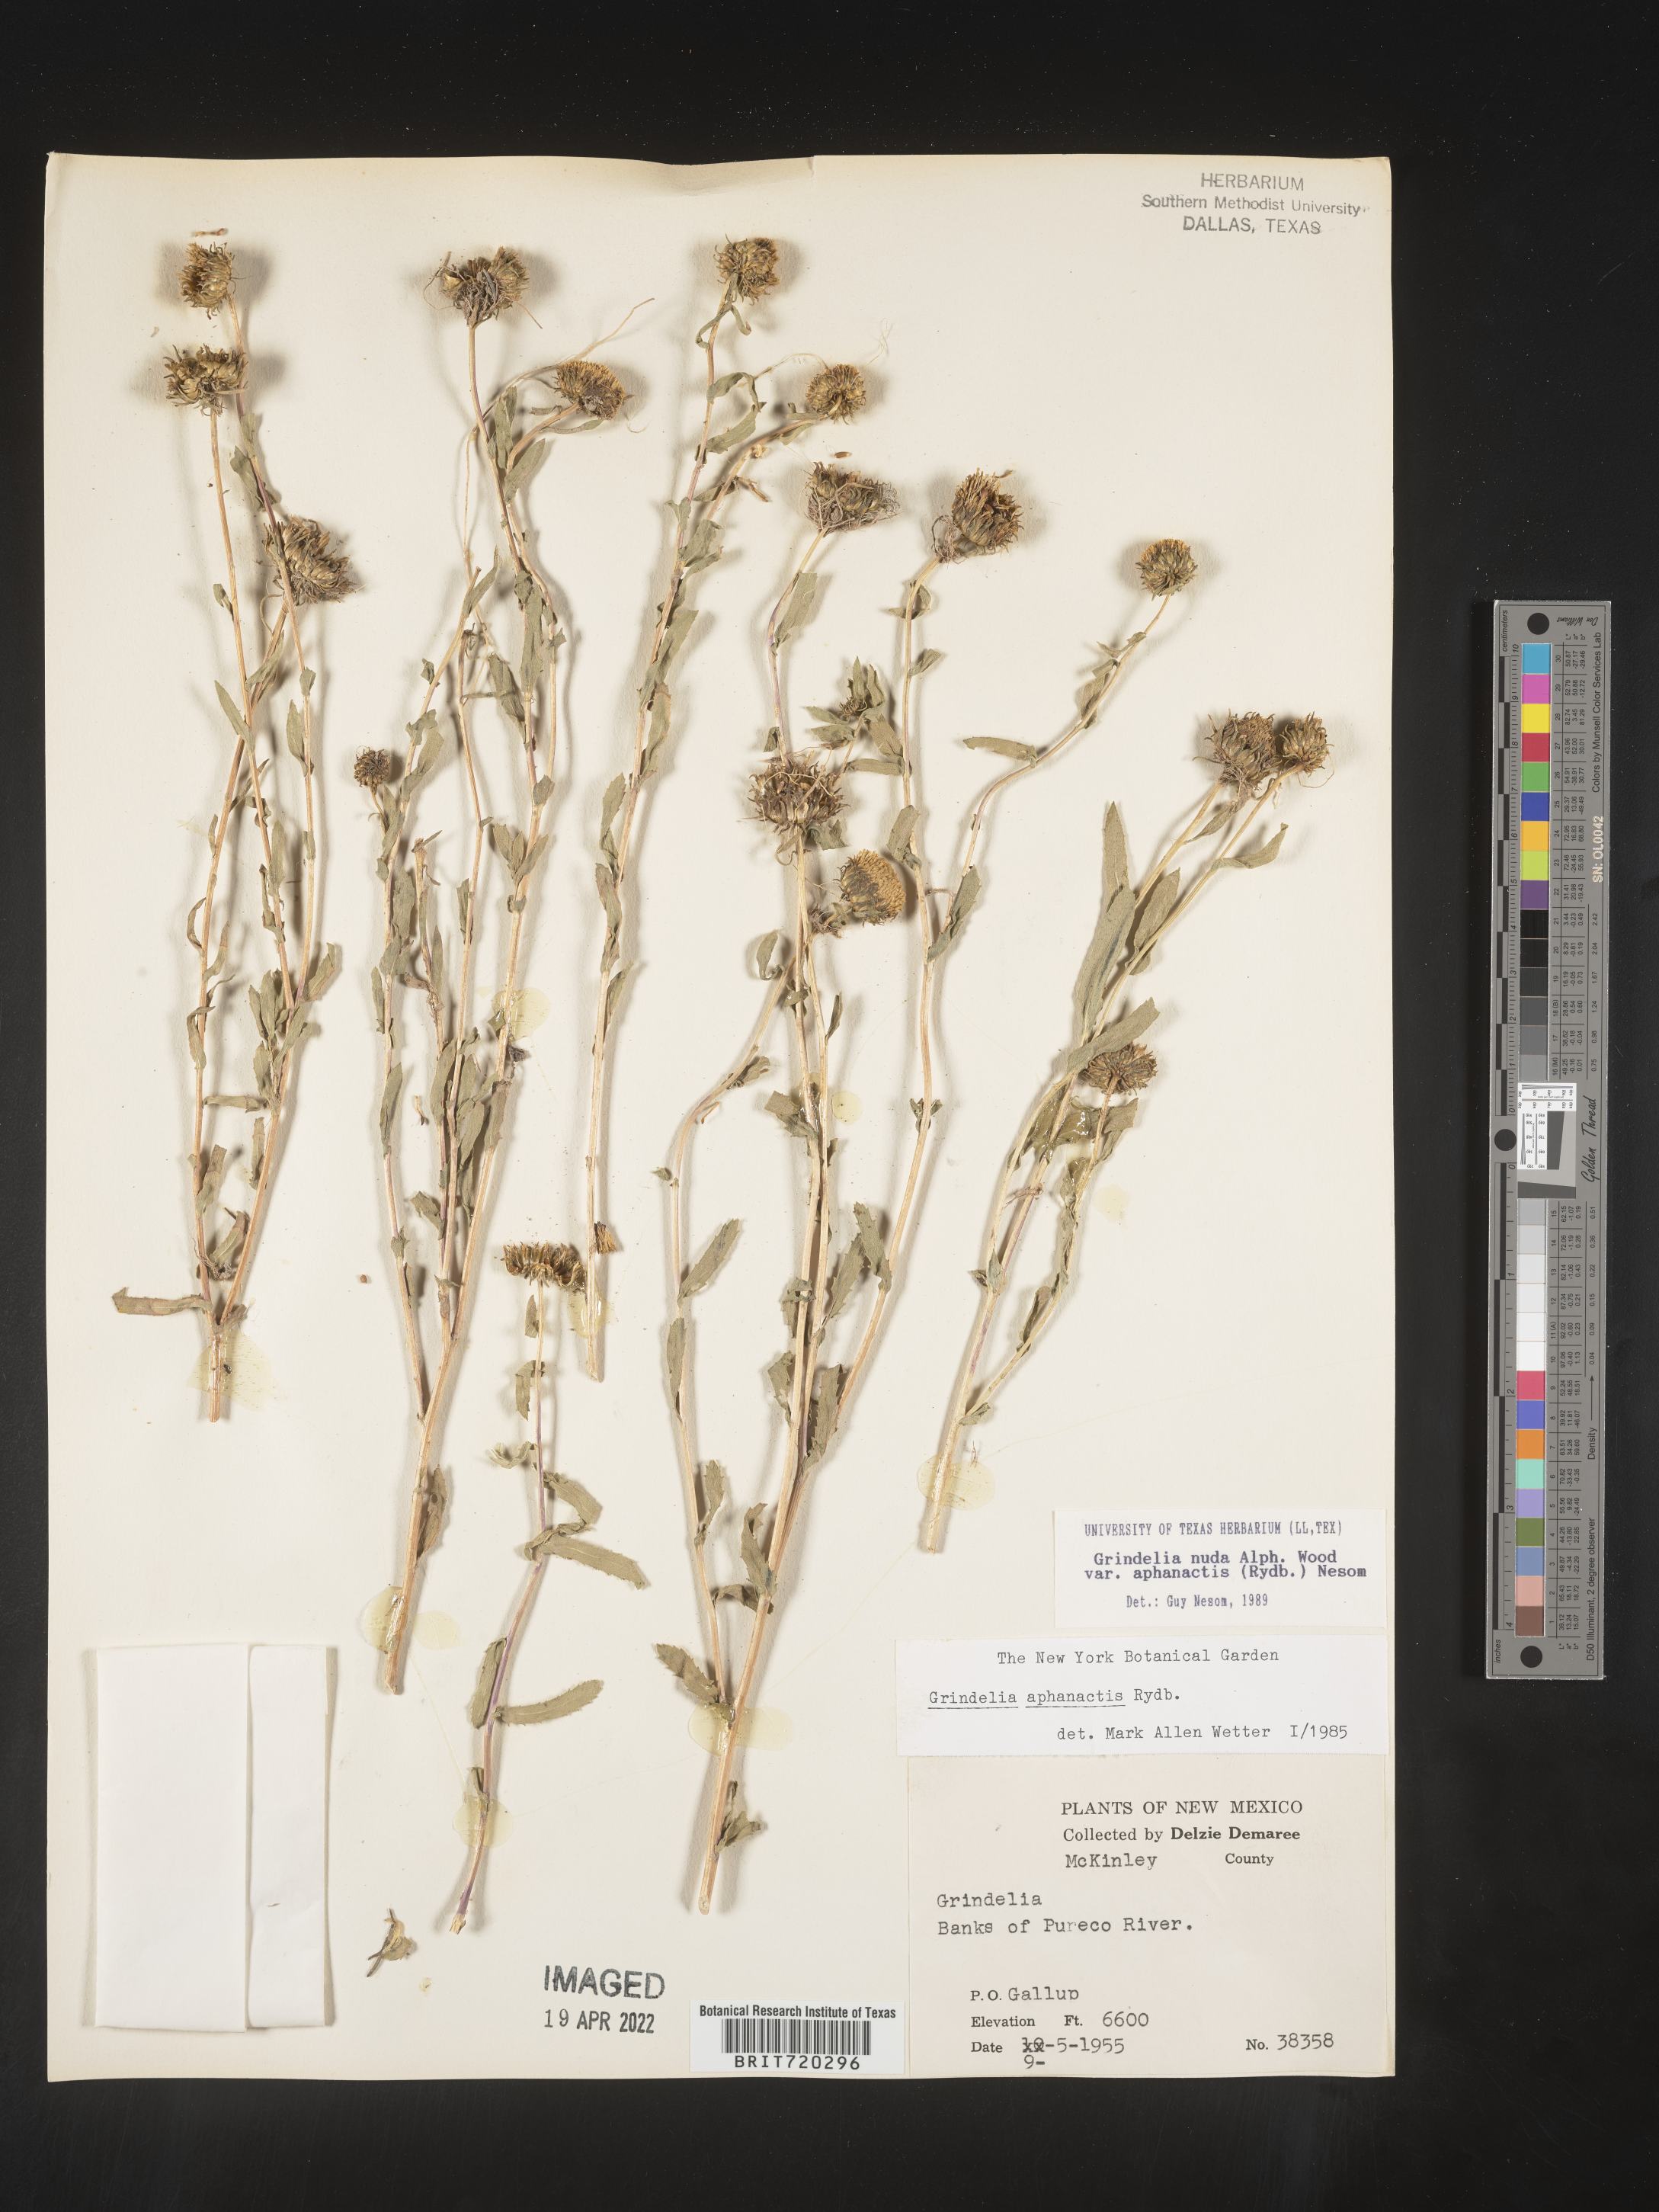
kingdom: Plantae
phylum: Tracheophyta
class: Magnoliopsida
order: Asterales
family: Asteraceae
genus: Grindelia
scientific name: Grindelia nuda
